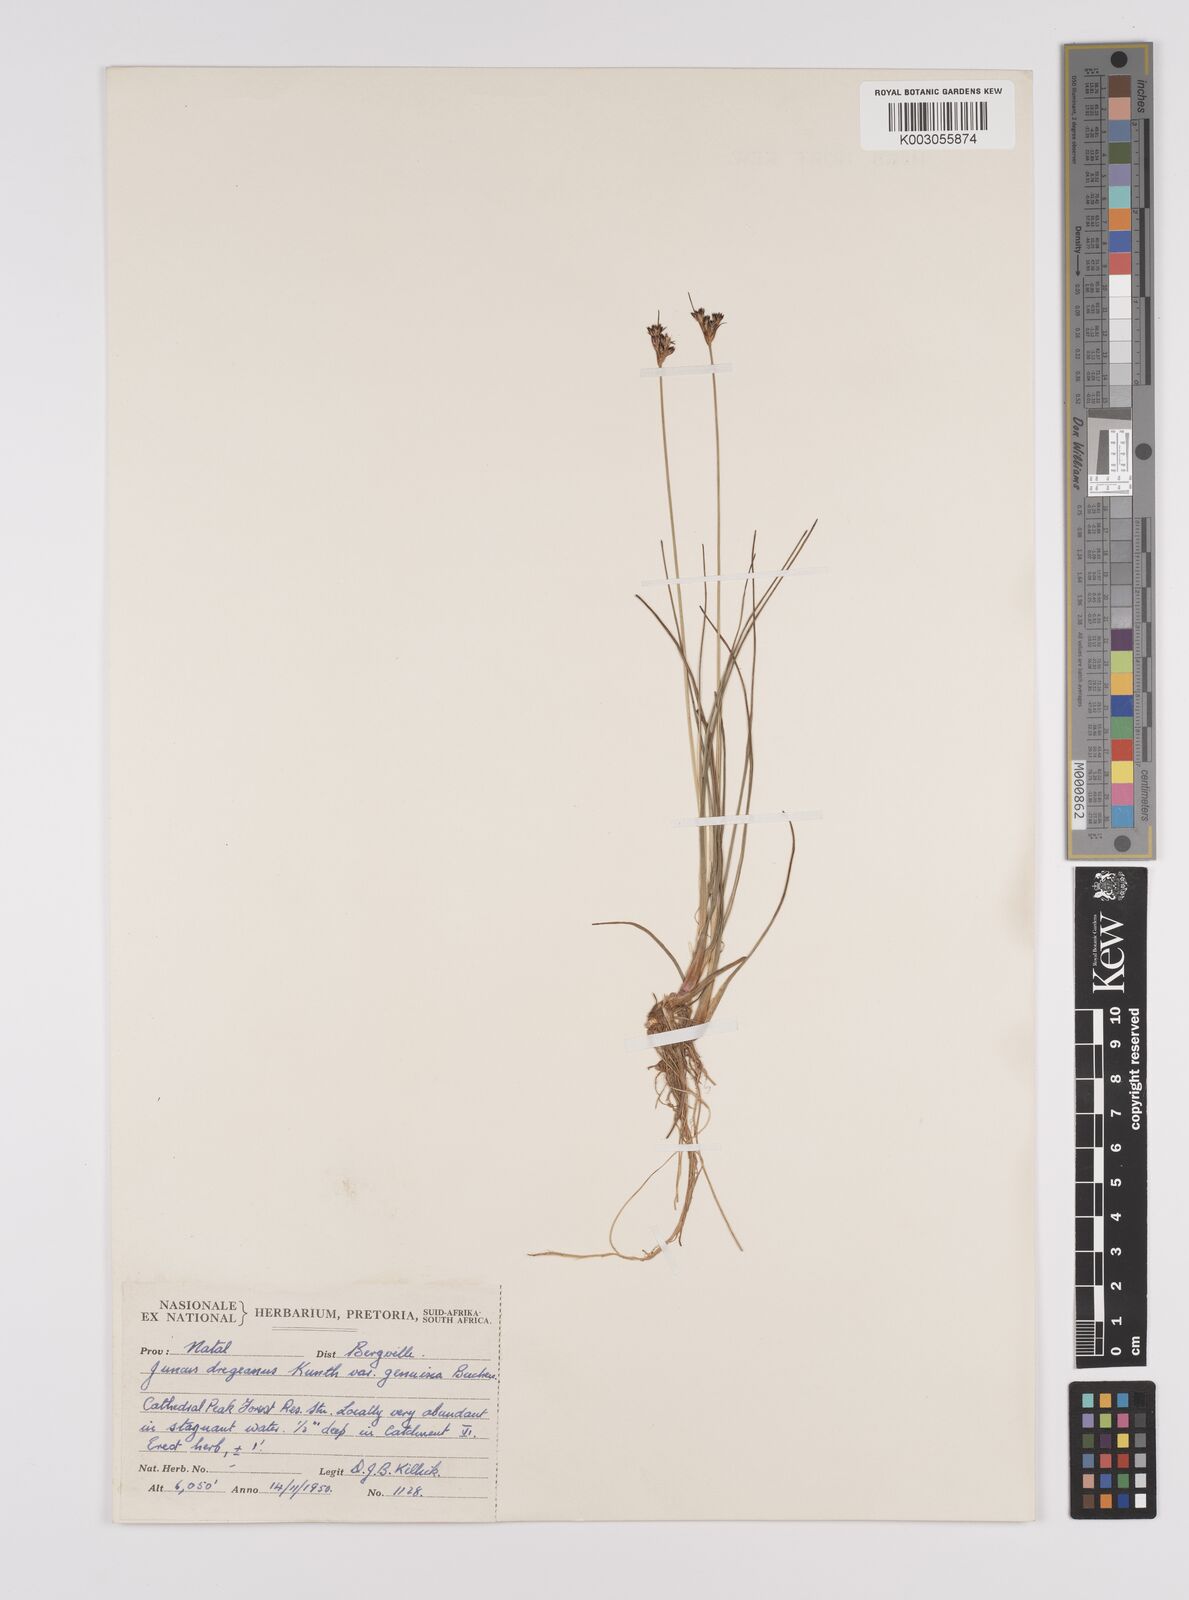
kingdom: Plantae
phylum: Tracheophyta
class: Liliopsida
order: Poales
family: Juncaceae
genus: Juncus
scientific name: Juncus dregeanus
